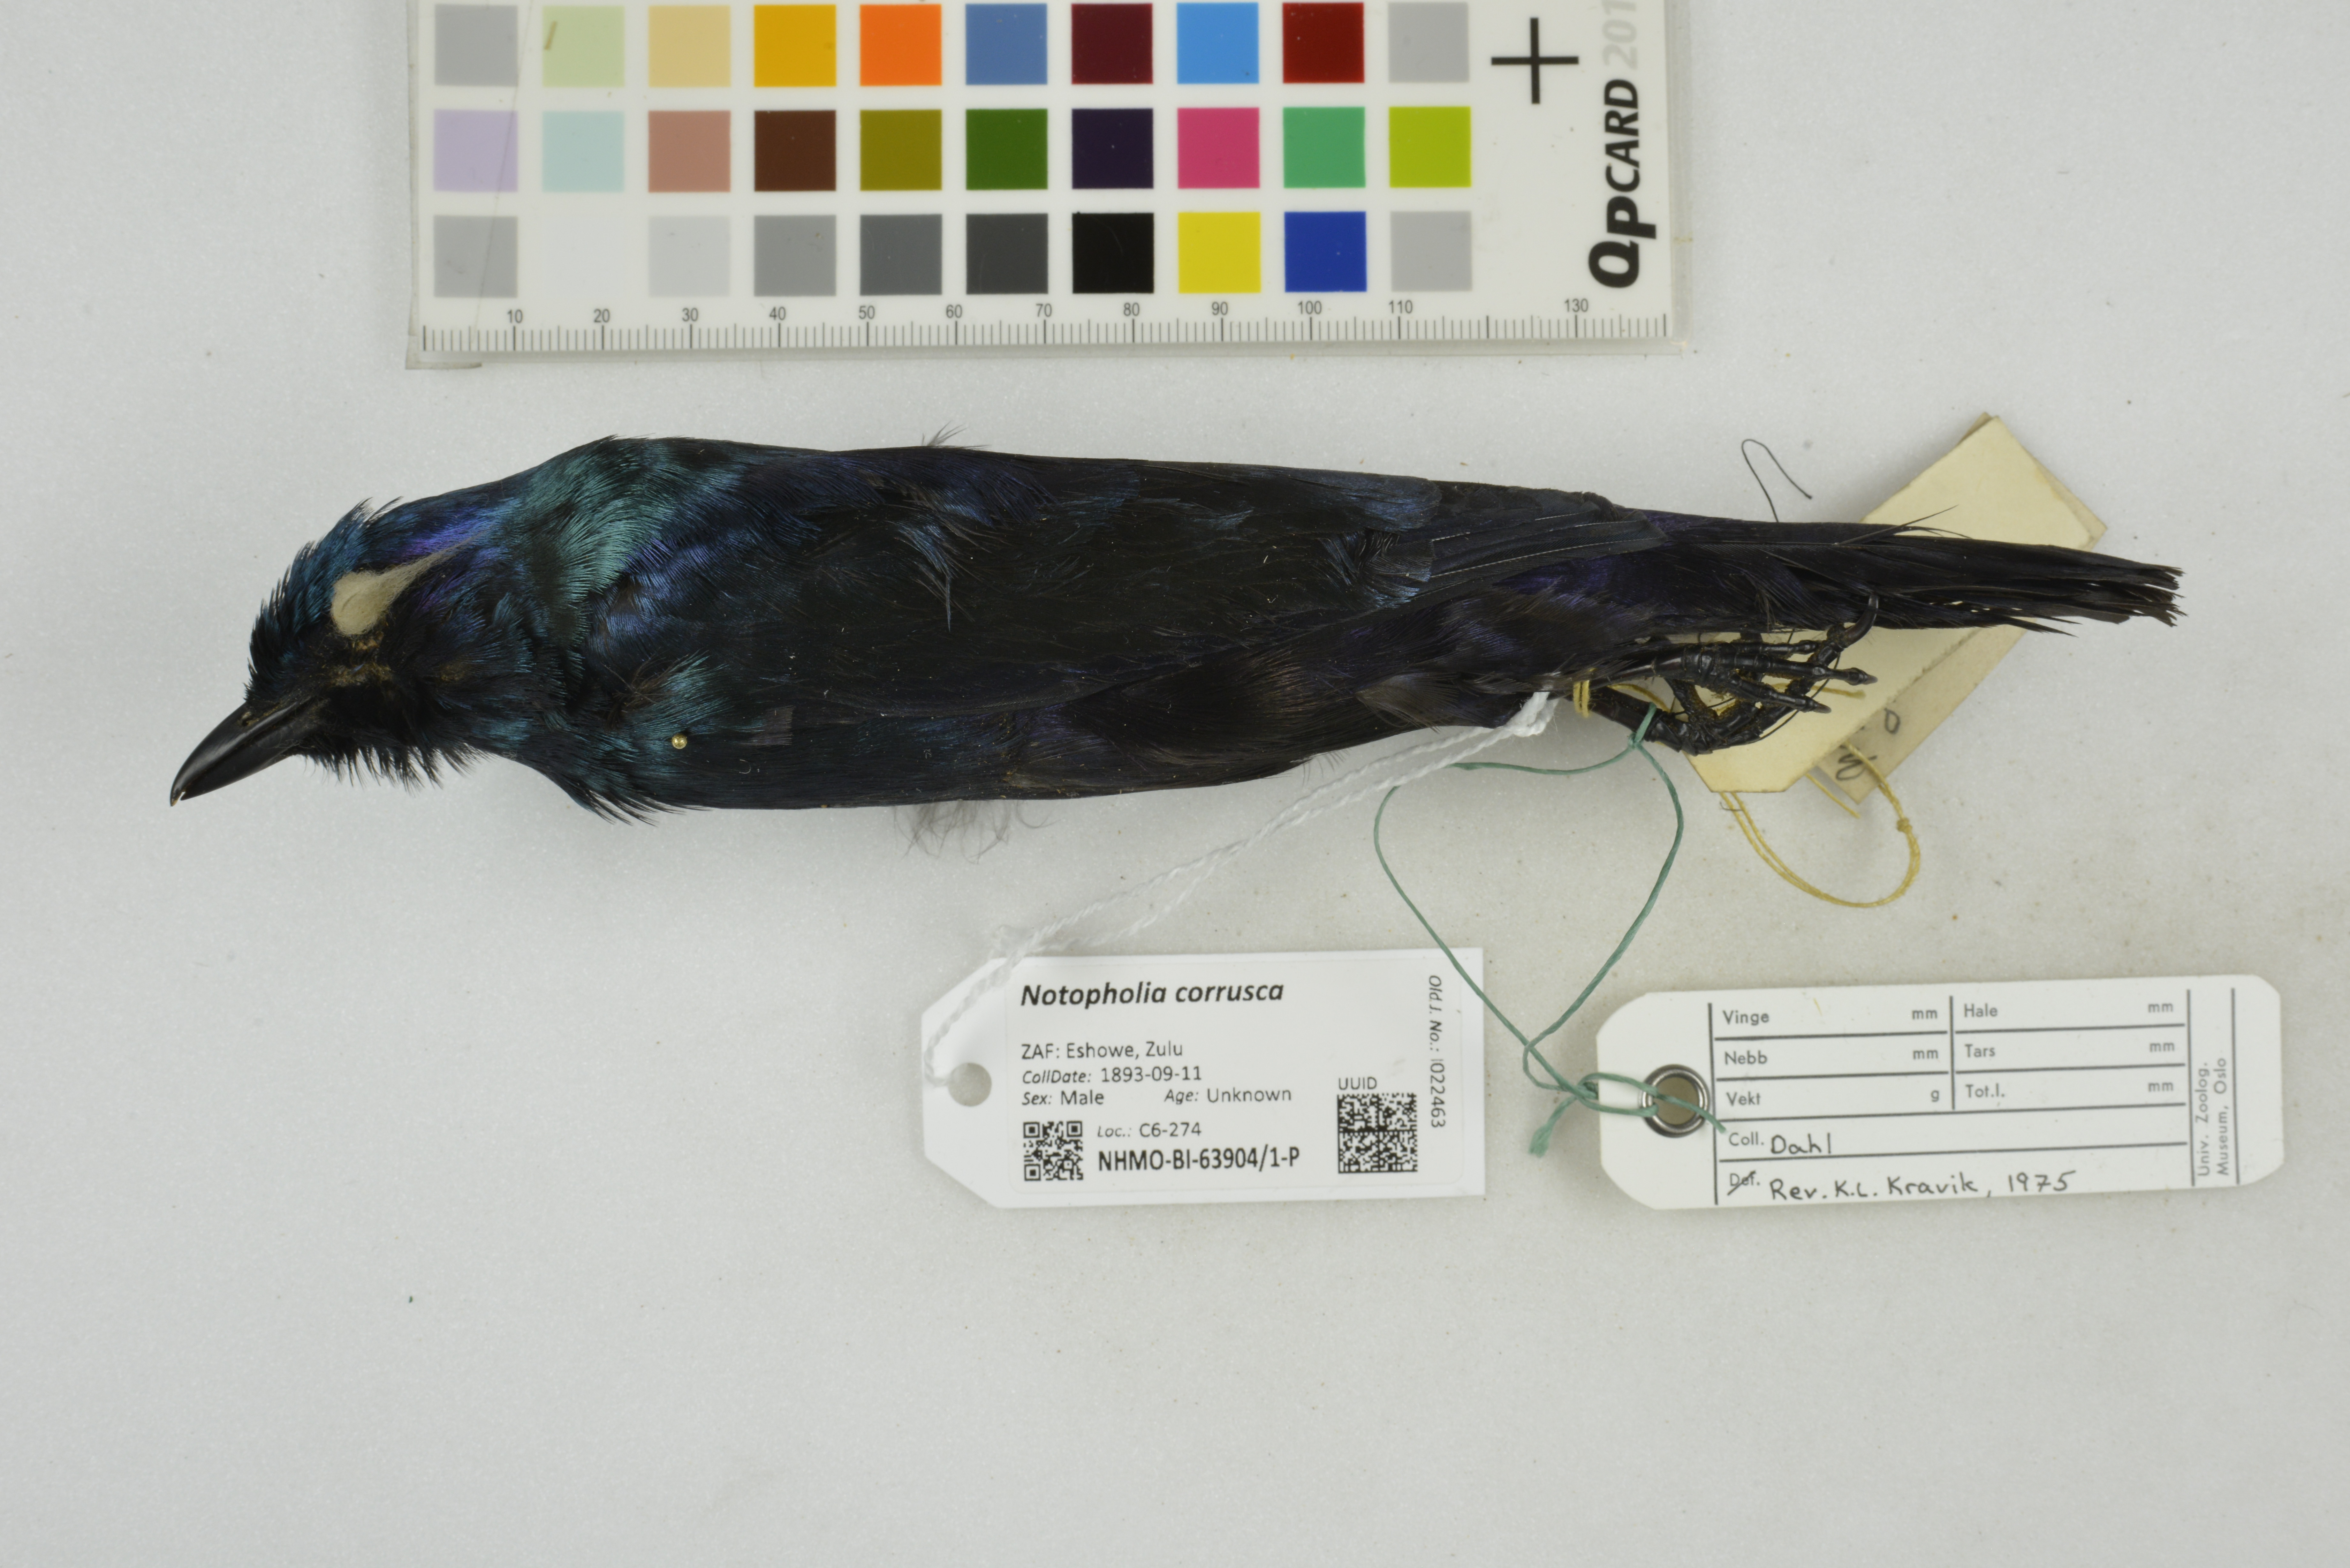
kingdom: Animalia
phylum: Chordata
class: Aves
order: Passeriformes
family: Sturnidae
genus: Notopholia
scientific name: Notopholia corrusca
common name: Black-bellied starling
